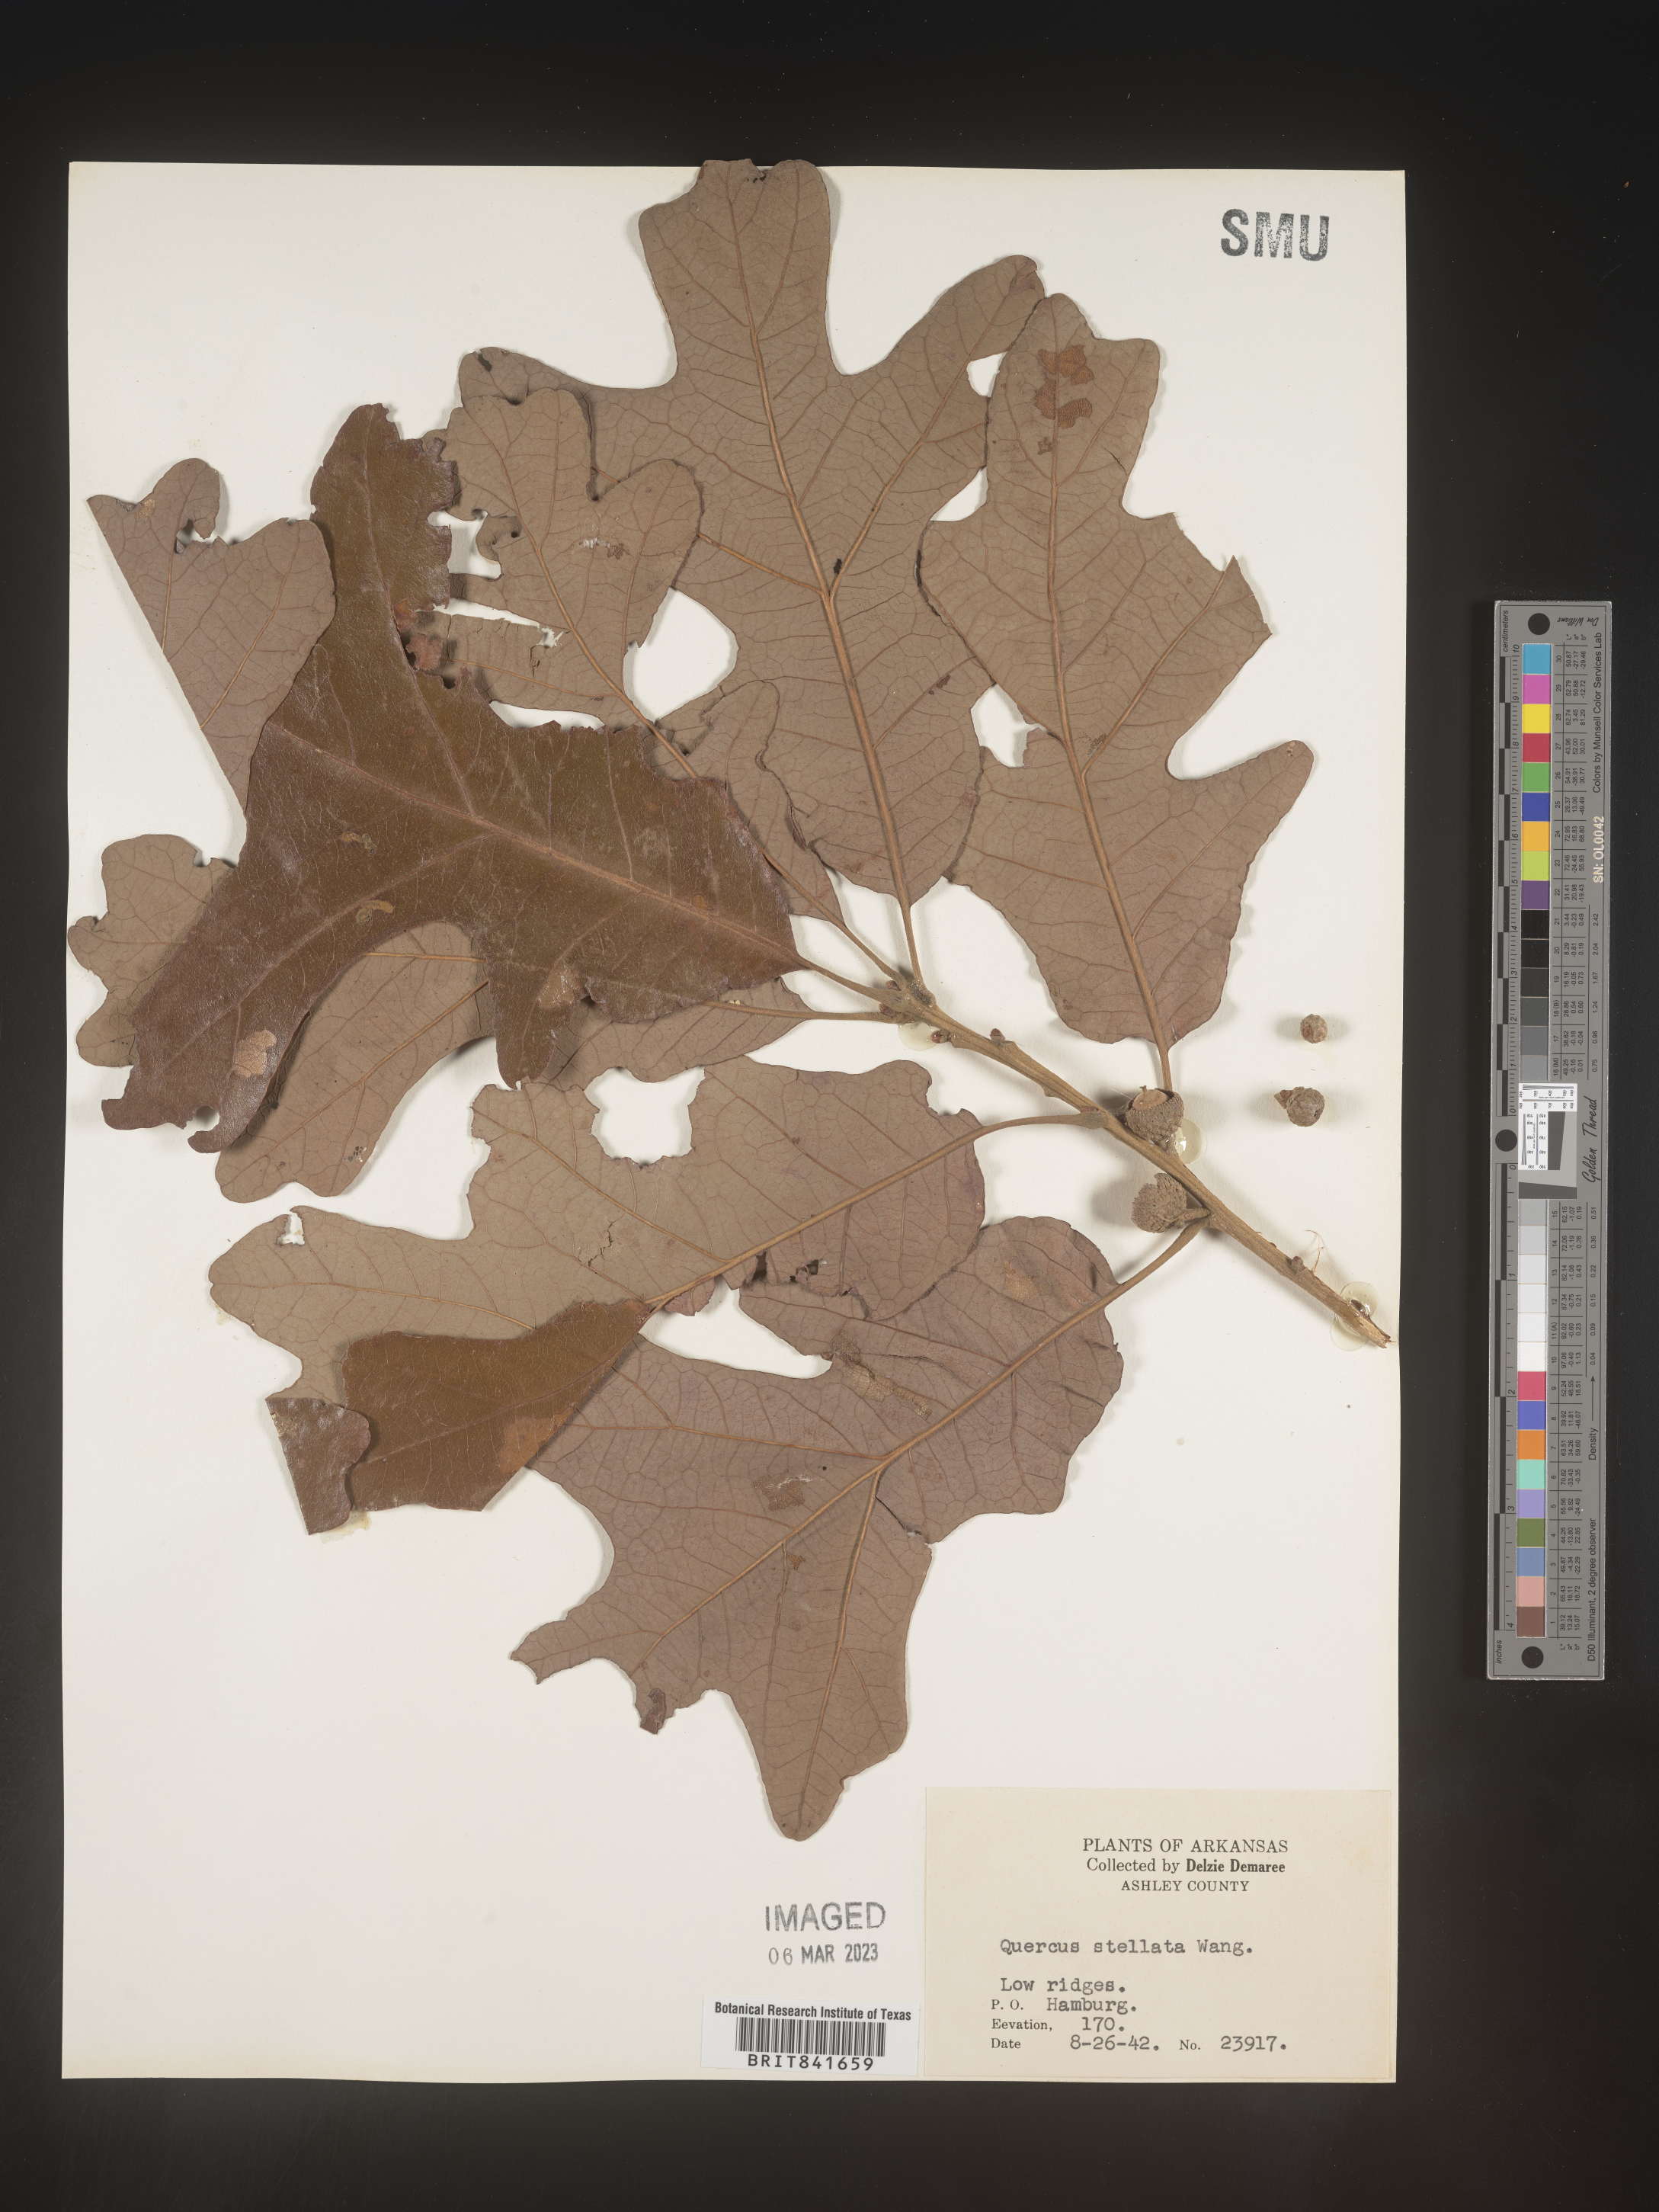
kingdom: Plantae
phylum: Tracheophyta
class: Magnoliopsida
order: Fagales
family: Fagaceae
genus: Quercus
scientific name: Quercus stellata
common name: Post oak
